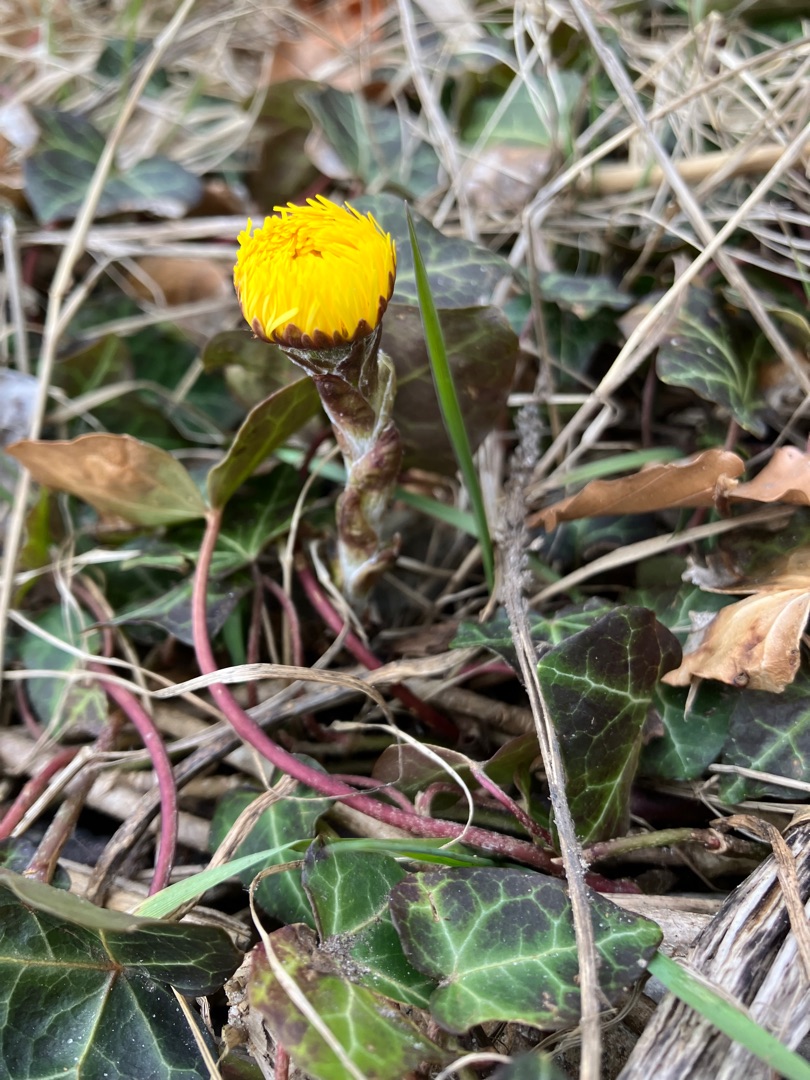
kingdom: Plantae
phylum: Tracheophyta
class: Magnoliopsida
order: Asterales
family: Asteraceae
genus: Tussilago
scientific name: Tussilago farfara
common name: Følfod
